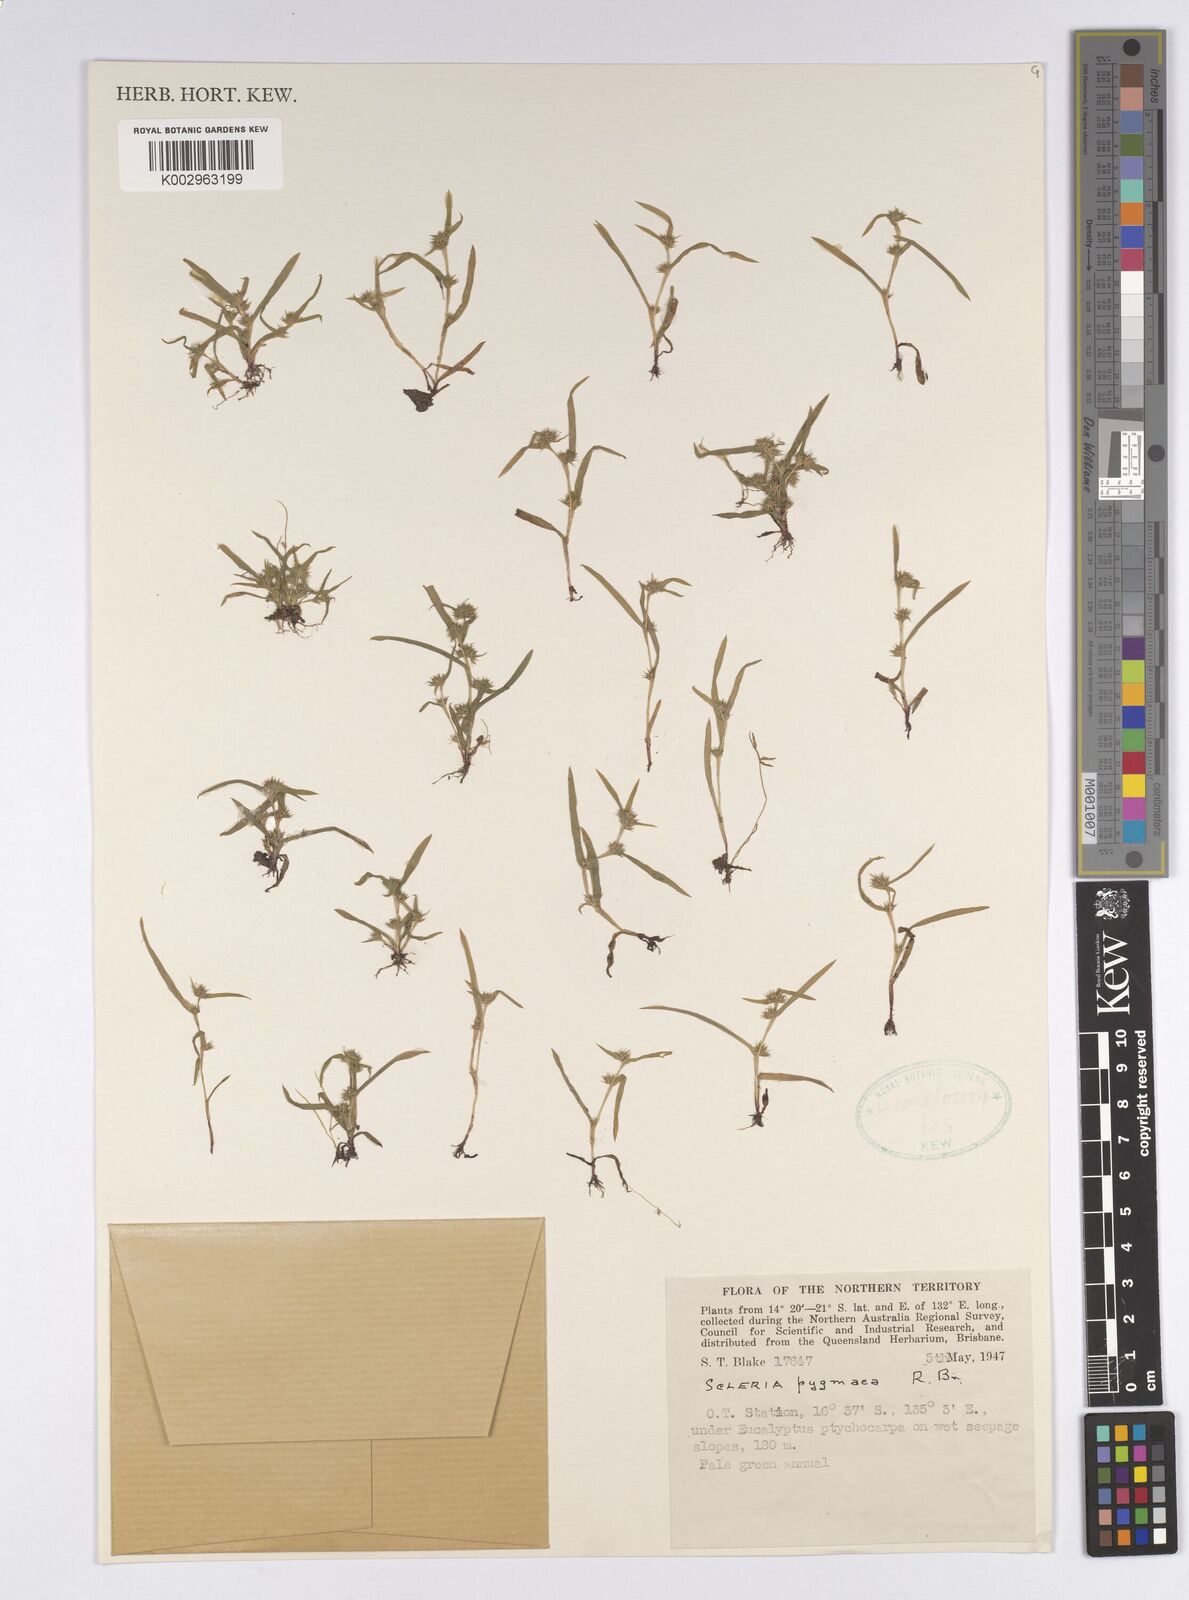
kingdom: Plantae
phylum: Tracheophyta
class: Liliopsida
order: Poales
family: Cyperaceae
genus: Diplacrum
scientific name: Diplacrum pygmaeum
